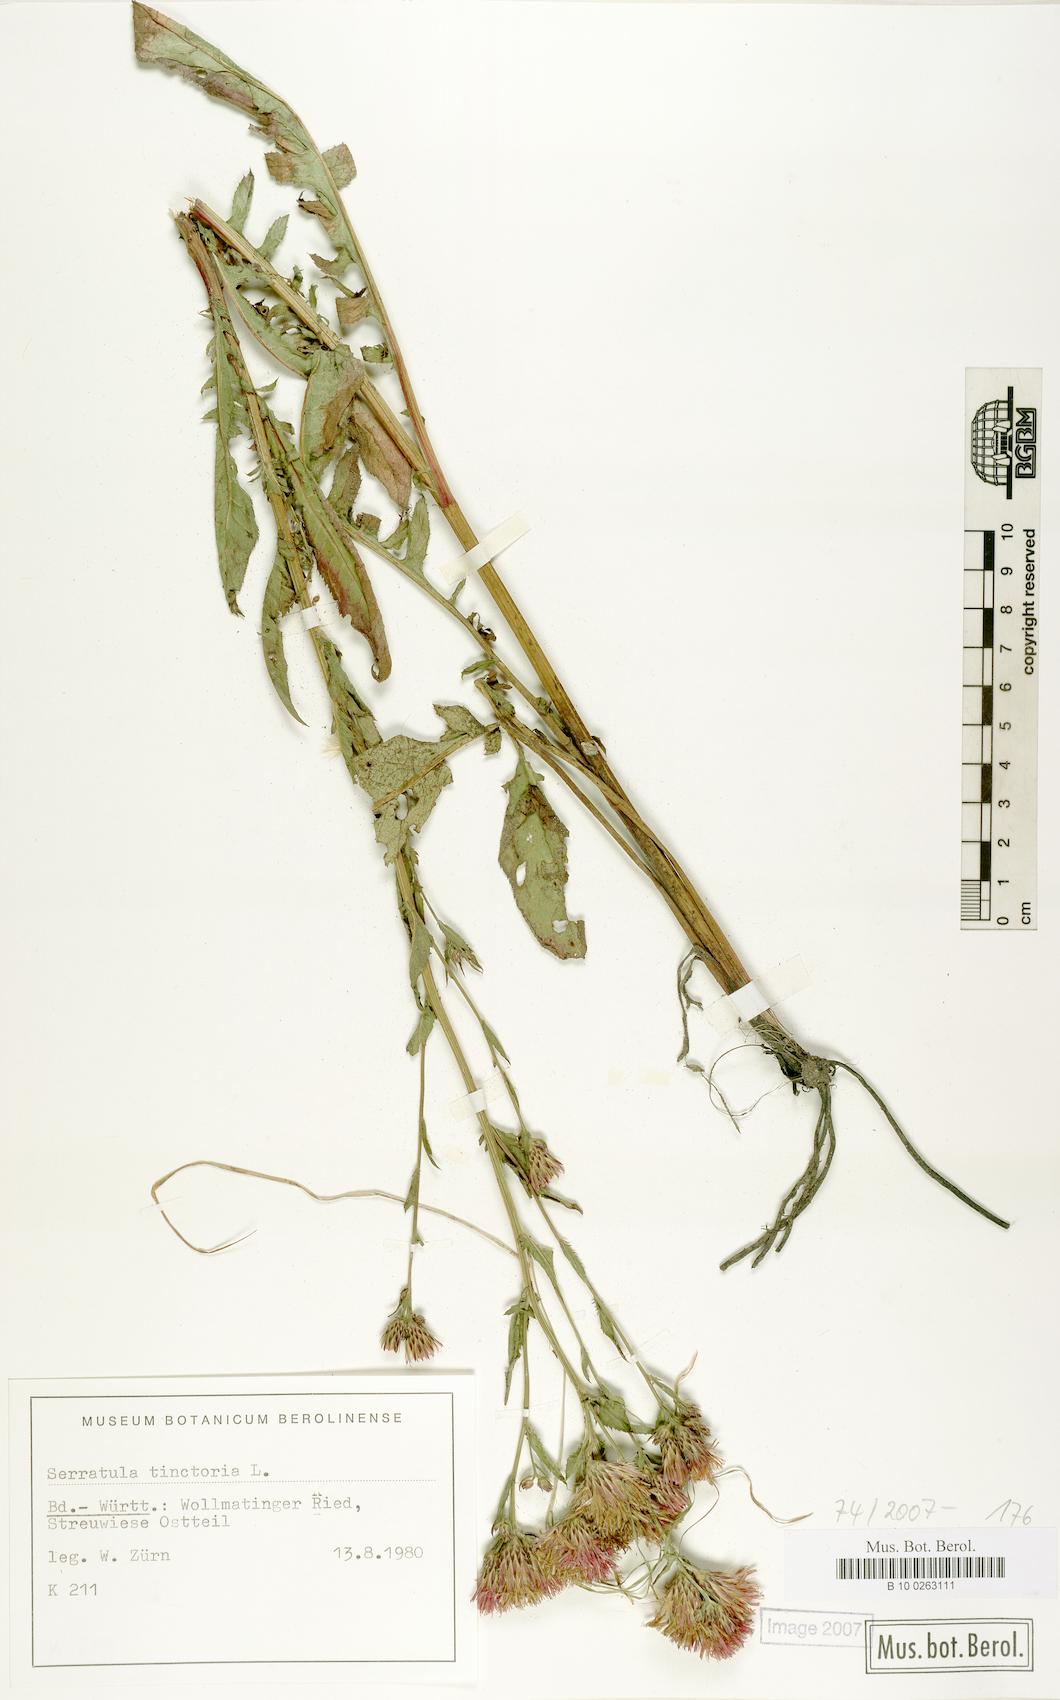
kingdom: Plantae
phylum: Tracheophyta
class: Magnoliopsida
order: Asterales
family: Asteraceae
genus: Serratula
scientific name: Serratula tinctoria
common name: Saw-wort
